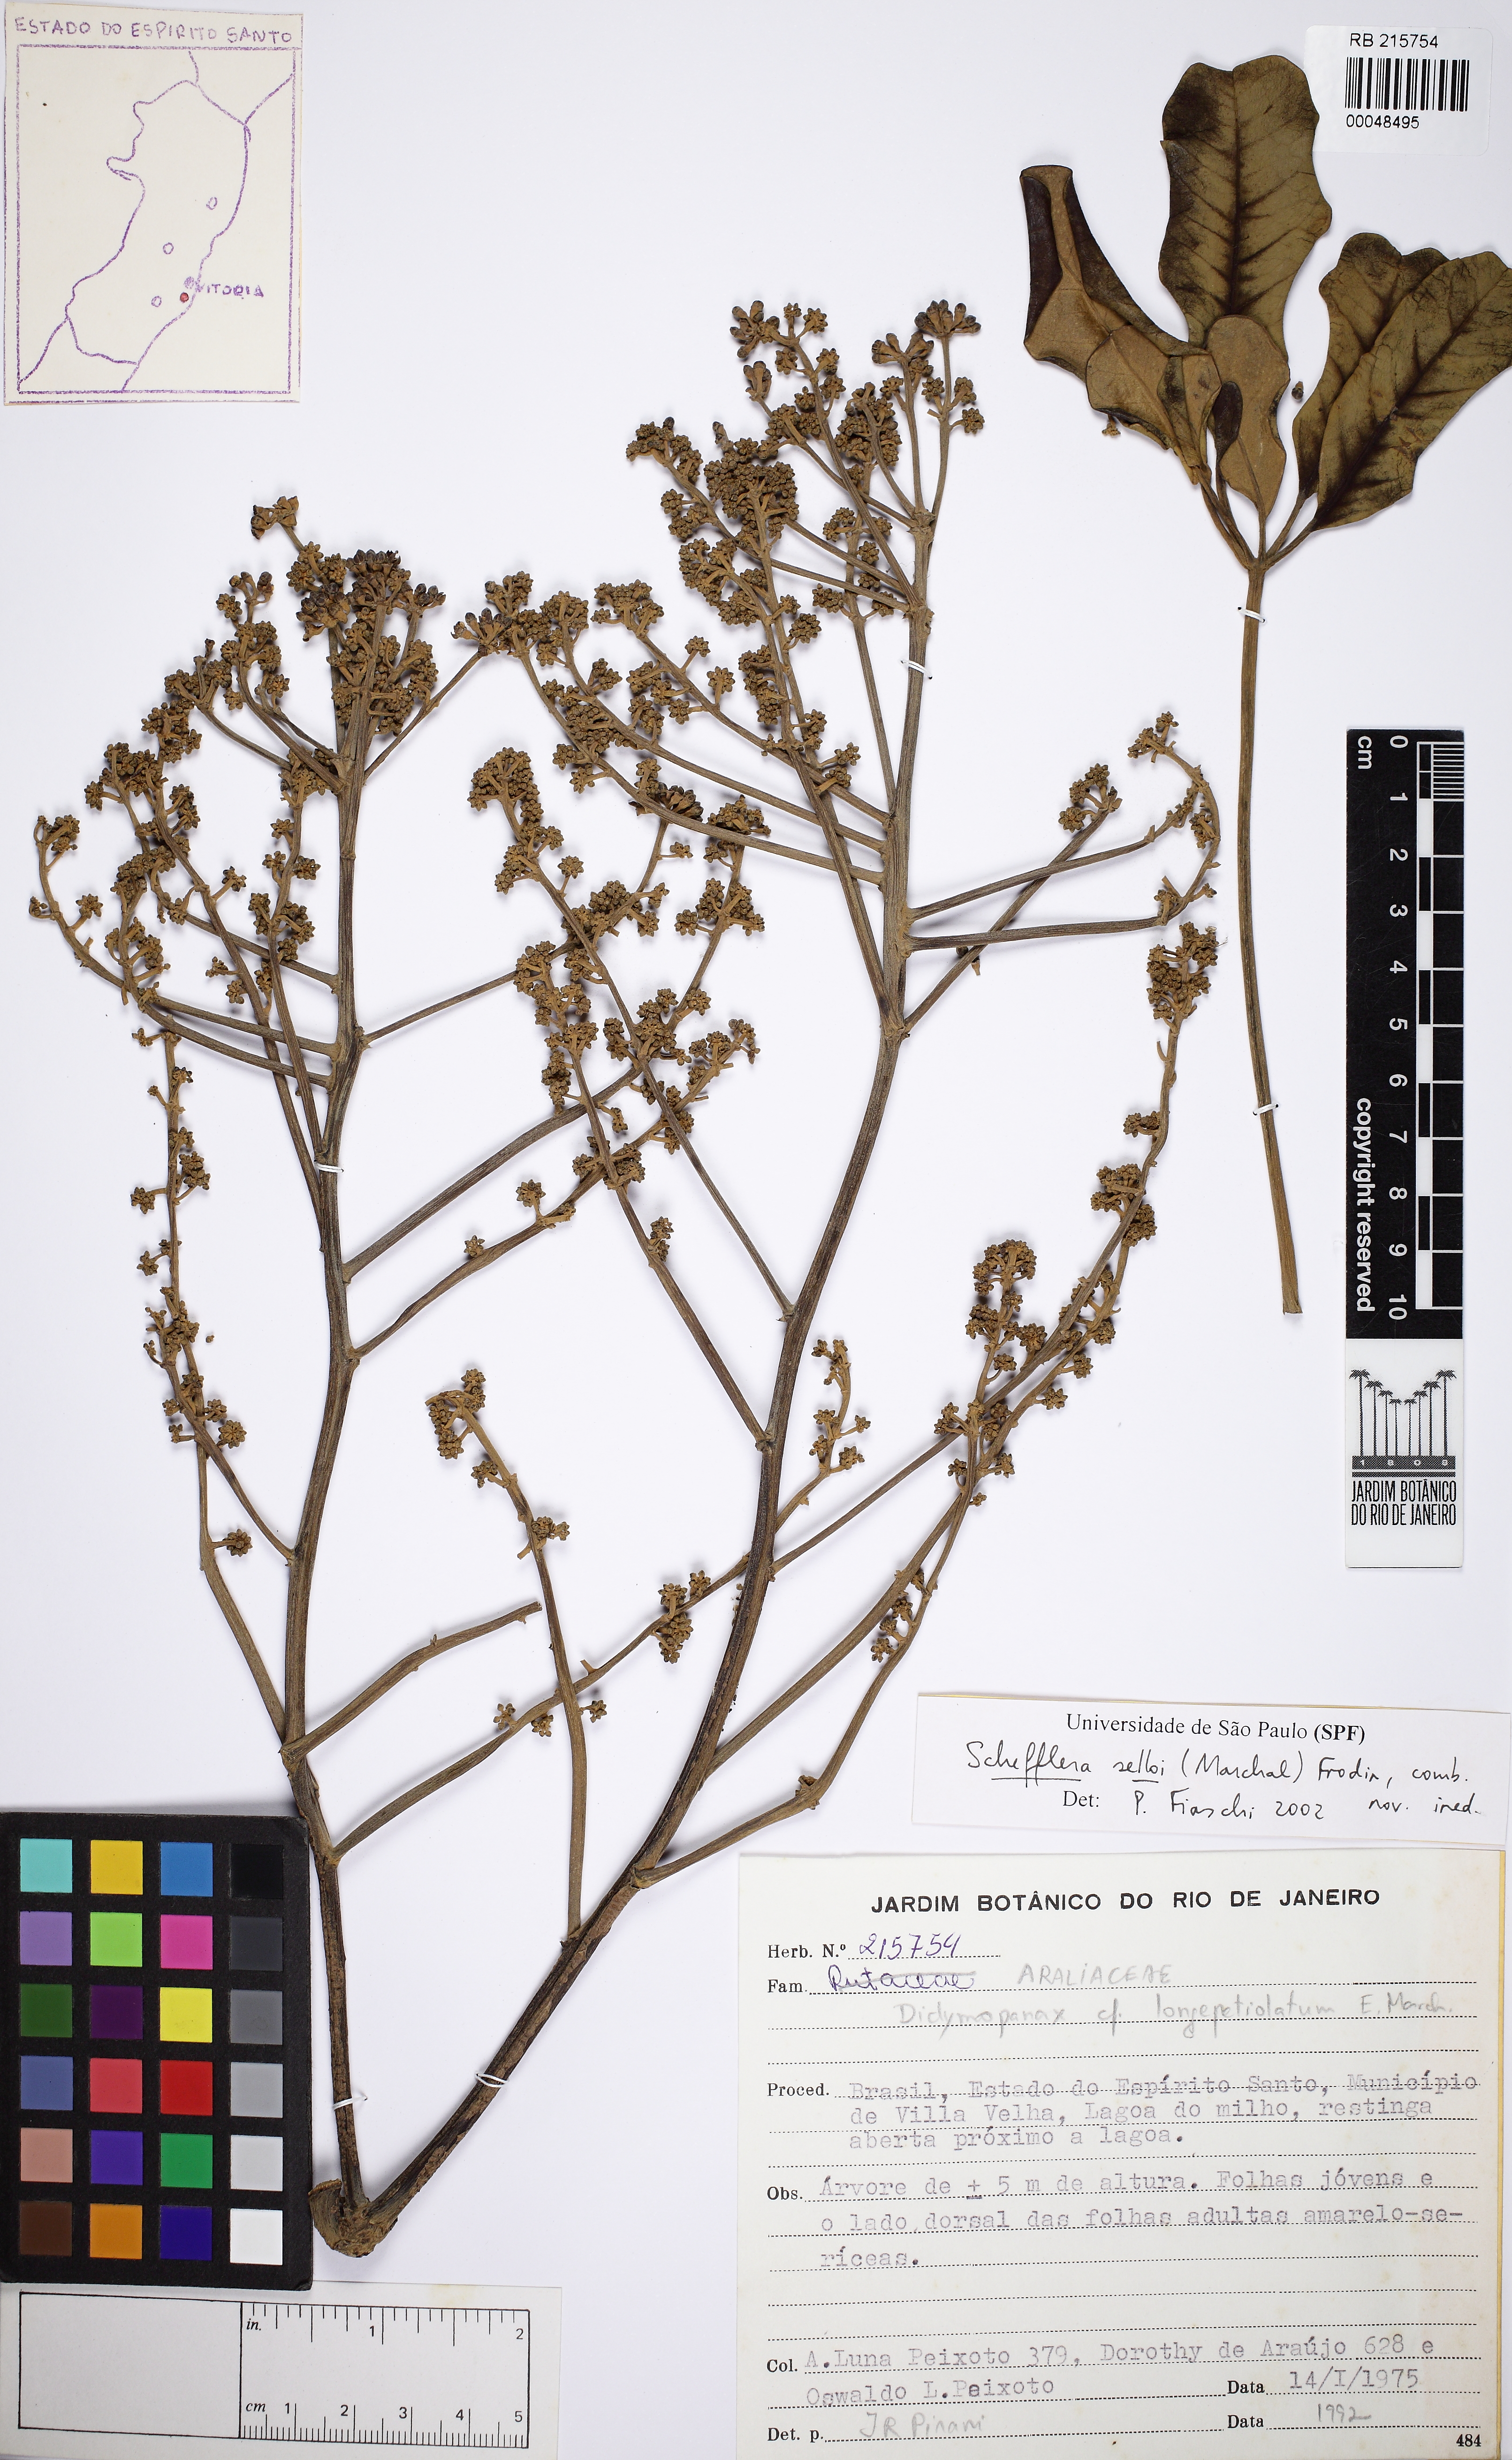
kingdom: Plantae
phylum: Tracheophyta
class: Magnoliopsida
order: Apiales
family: Araliaceae
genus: Didymopanax
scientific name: Didymopanax selloi
